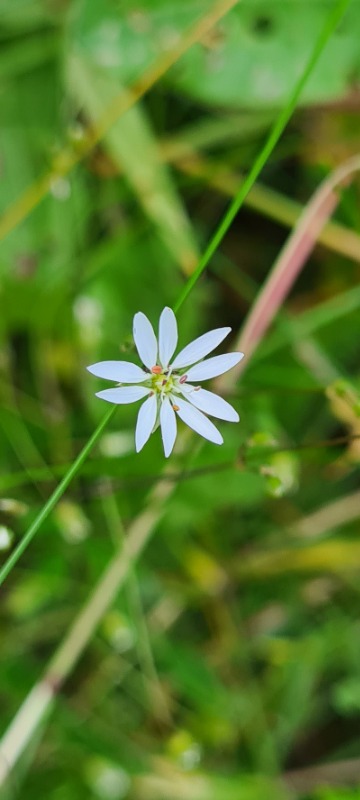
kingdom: Plantae
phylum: Tracheophyta
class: Magnoliopsida
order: Caryophyllales
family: Caryophyllaceae
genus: Stellaria
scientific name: Stellaria graminea
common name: Græsbladet fladstjerne
